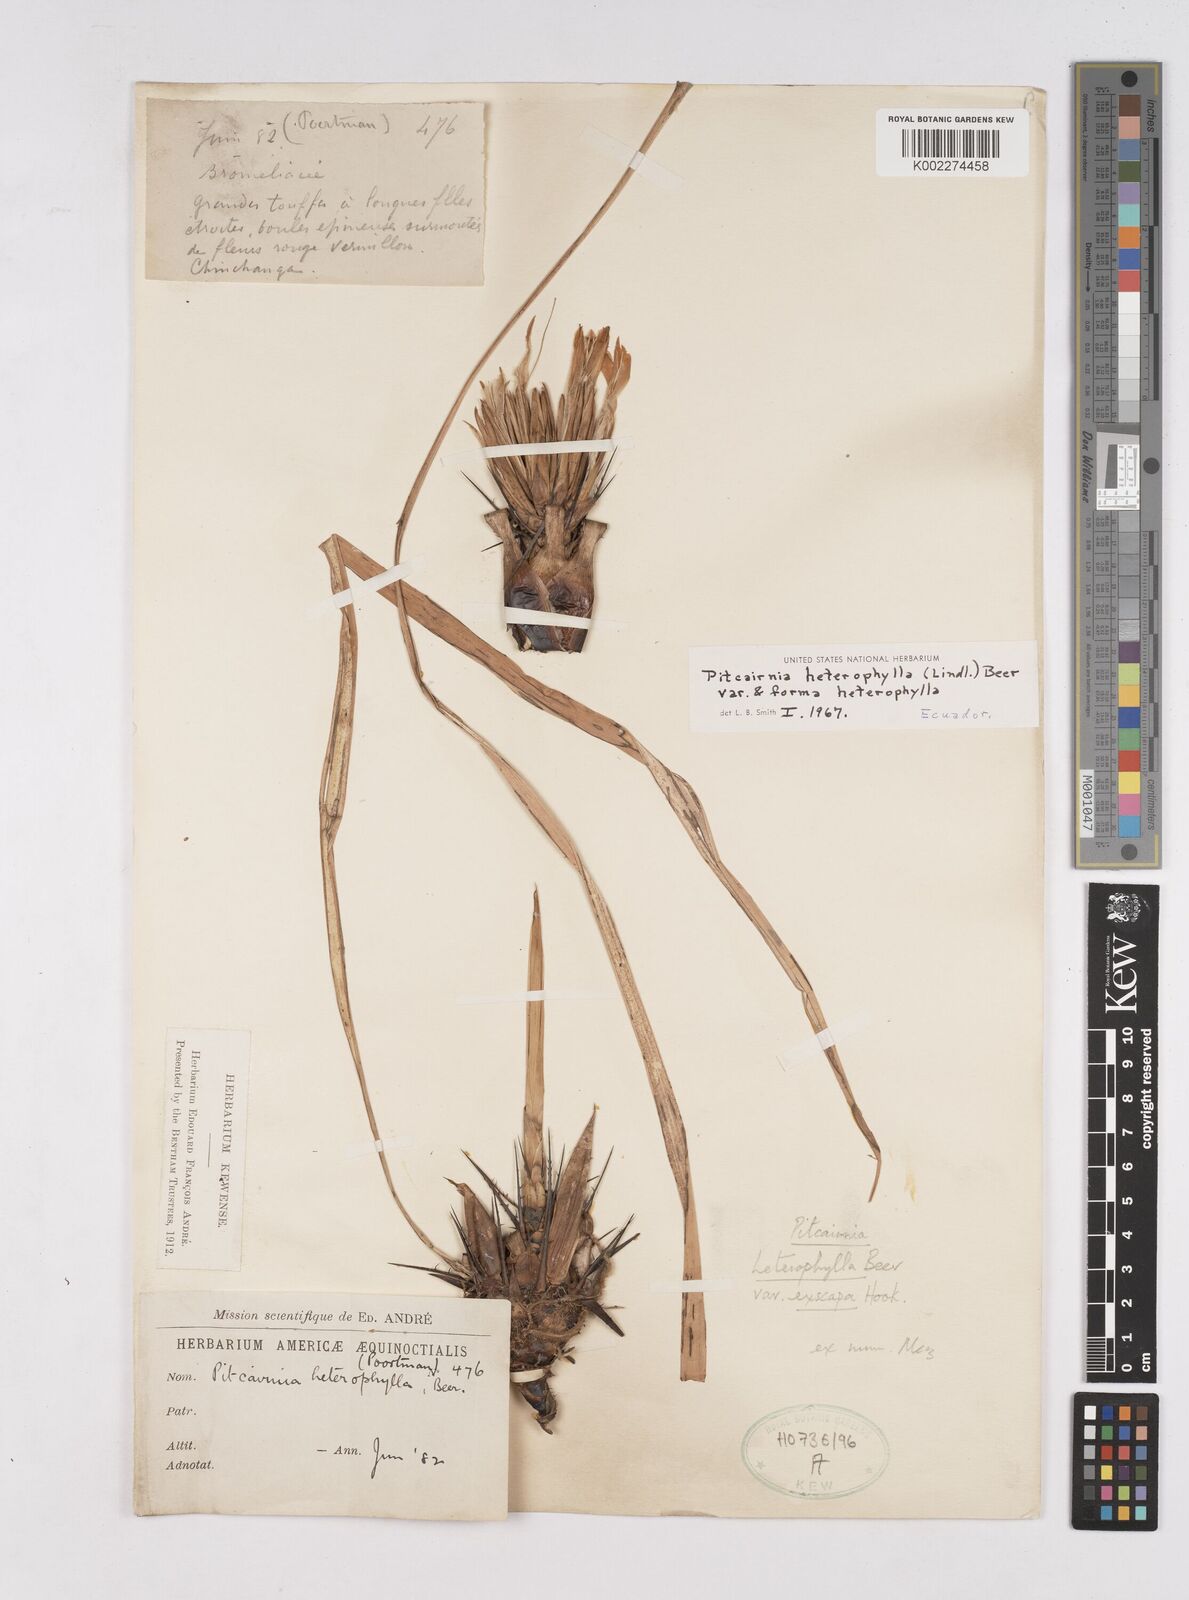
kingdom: Plantae
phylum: Tracheophyta
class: Liliopsida
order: Poales
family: Bromeliaceae
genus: Pitcairnia
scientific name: Pitcairnia heterophylla
